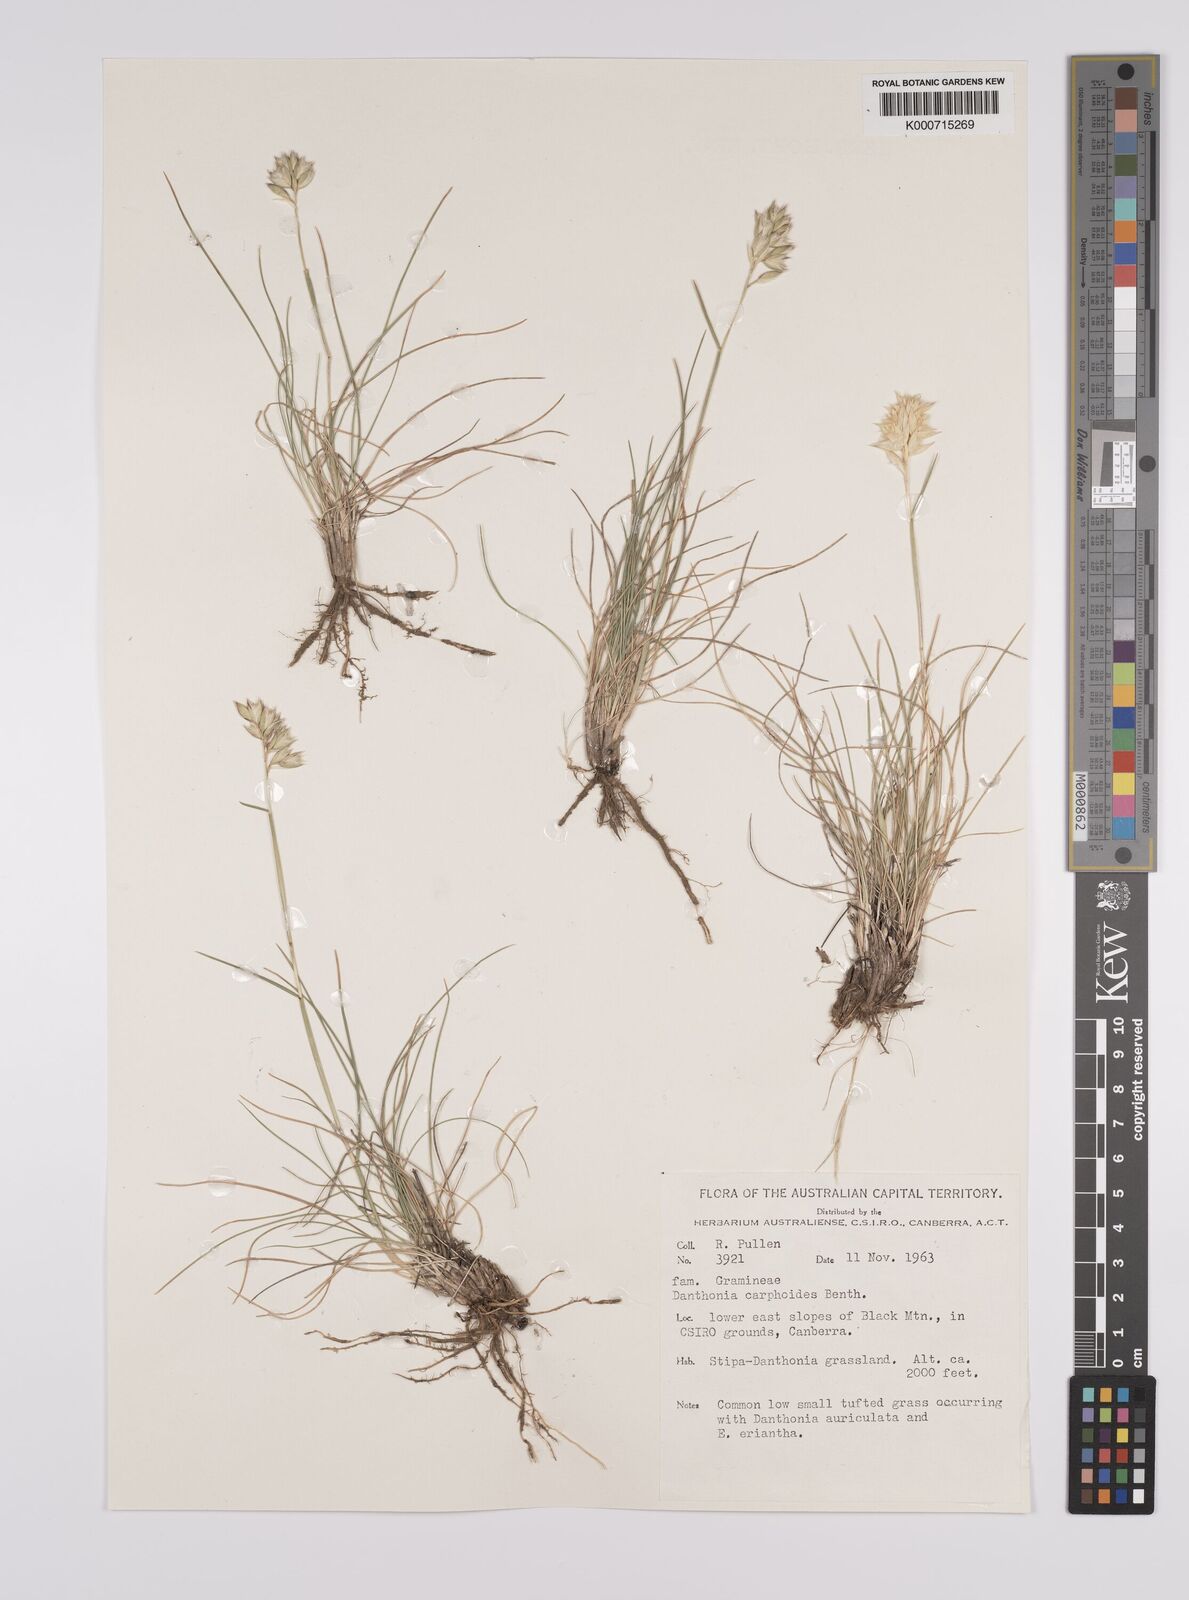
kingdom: Plantae
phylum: Tracheophyta
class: Liliopsida
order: Poales
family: Poaceae
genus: Rytidosperma
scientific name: Rytidosperma carphoides
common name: Short wallaby grass
